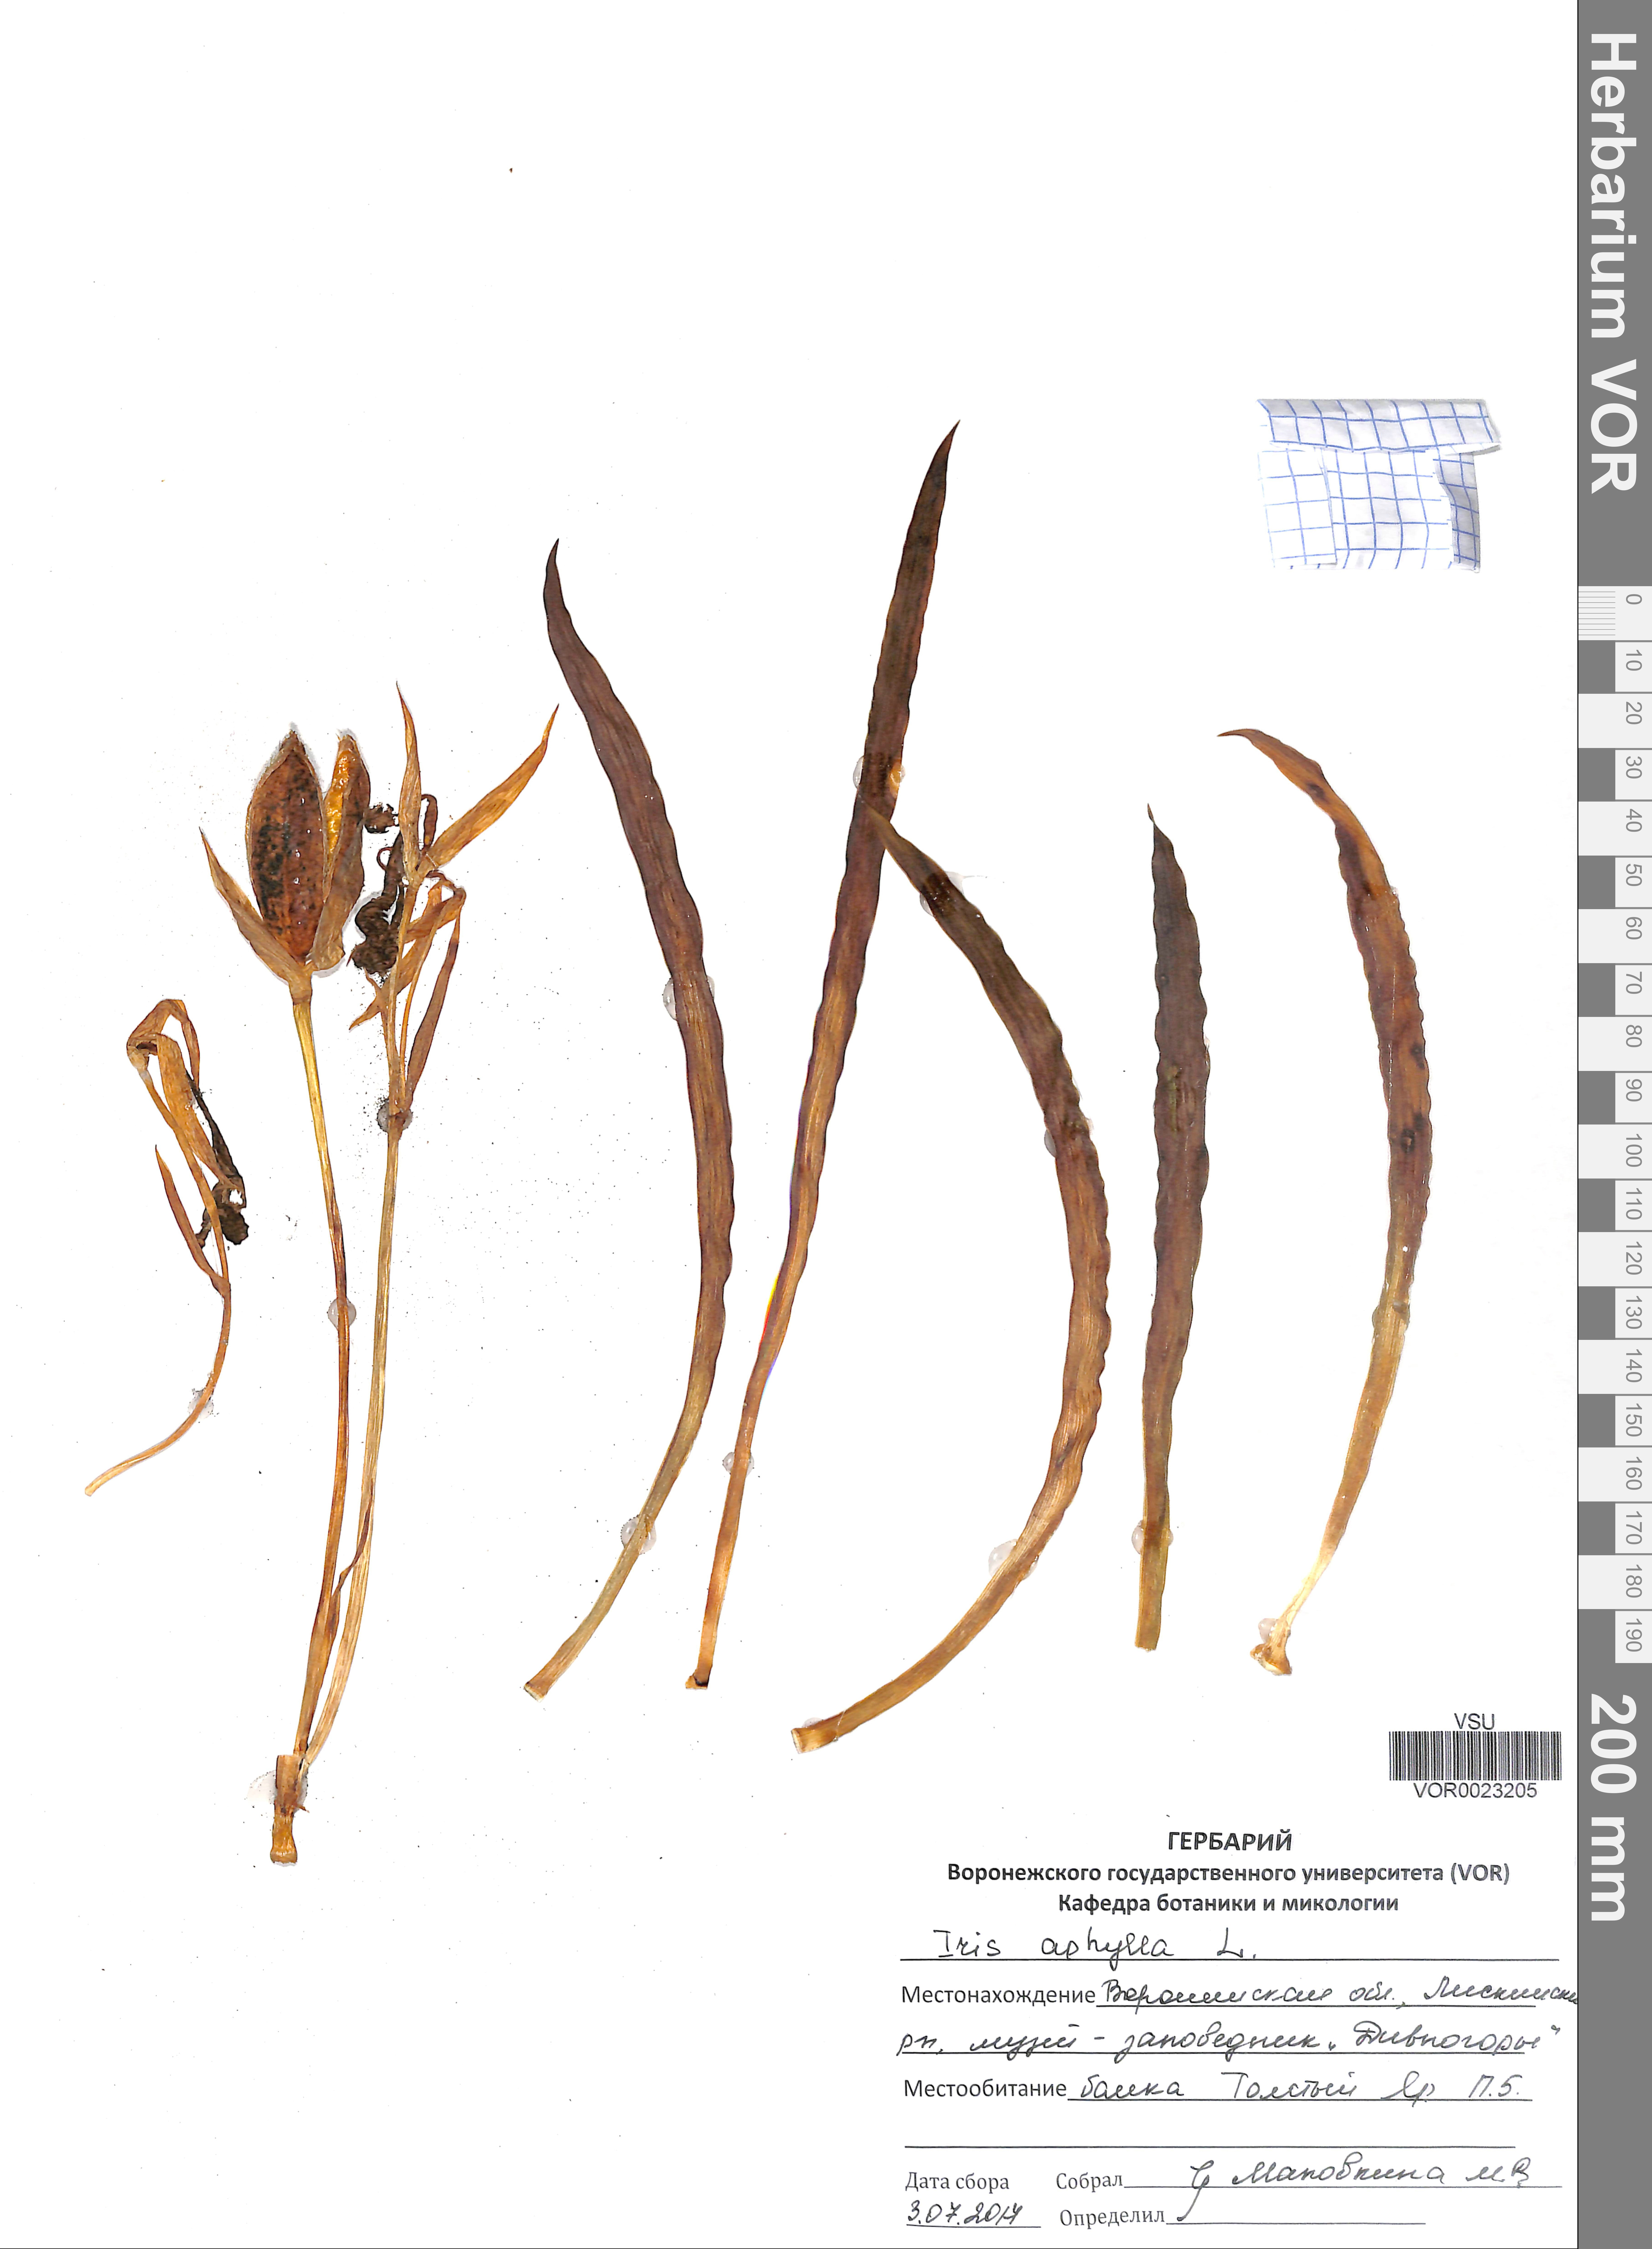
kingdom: Plantae
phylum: Tracheophyta
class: Liliopsida
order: Asparagales
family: Iridaceae
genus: Iris
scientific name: Iris aphylla
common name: Stool iris
